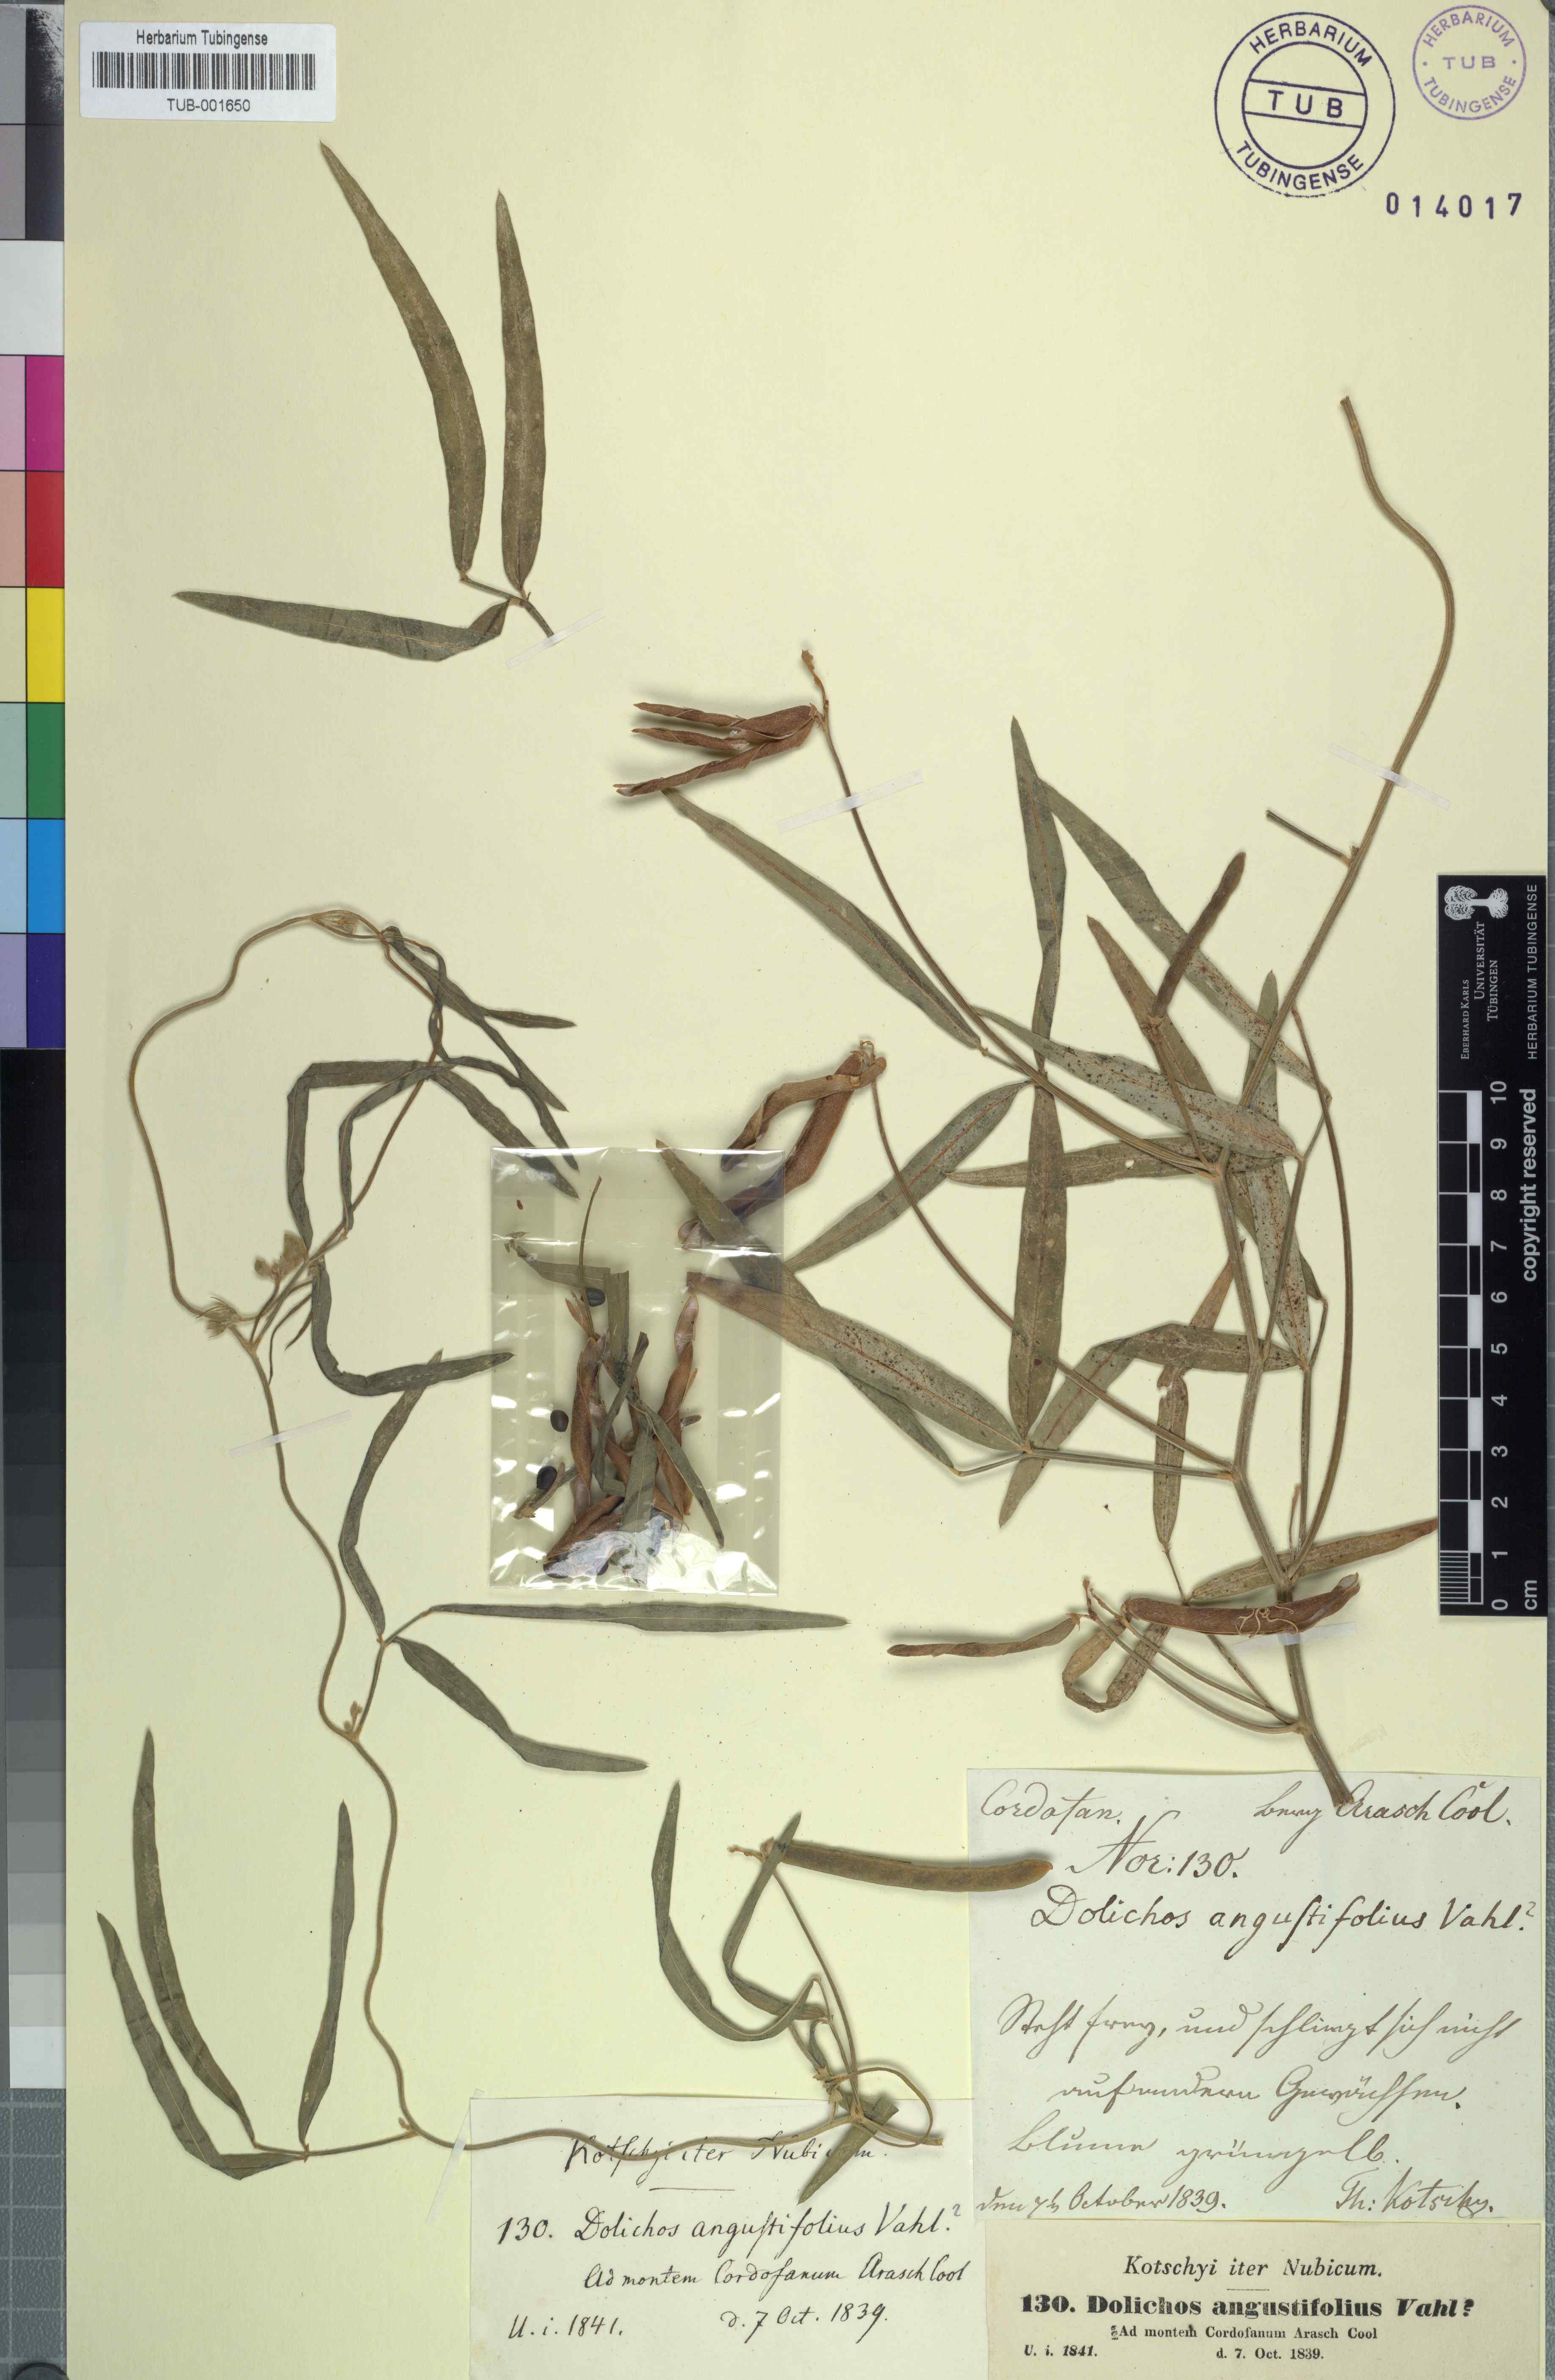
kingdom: Plantae
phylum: Tracheophyta
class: Magnoliopsida
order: Fabales
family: Fabaceae
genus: Vigna
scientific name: Vigna vexillata
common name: Zombi pea
